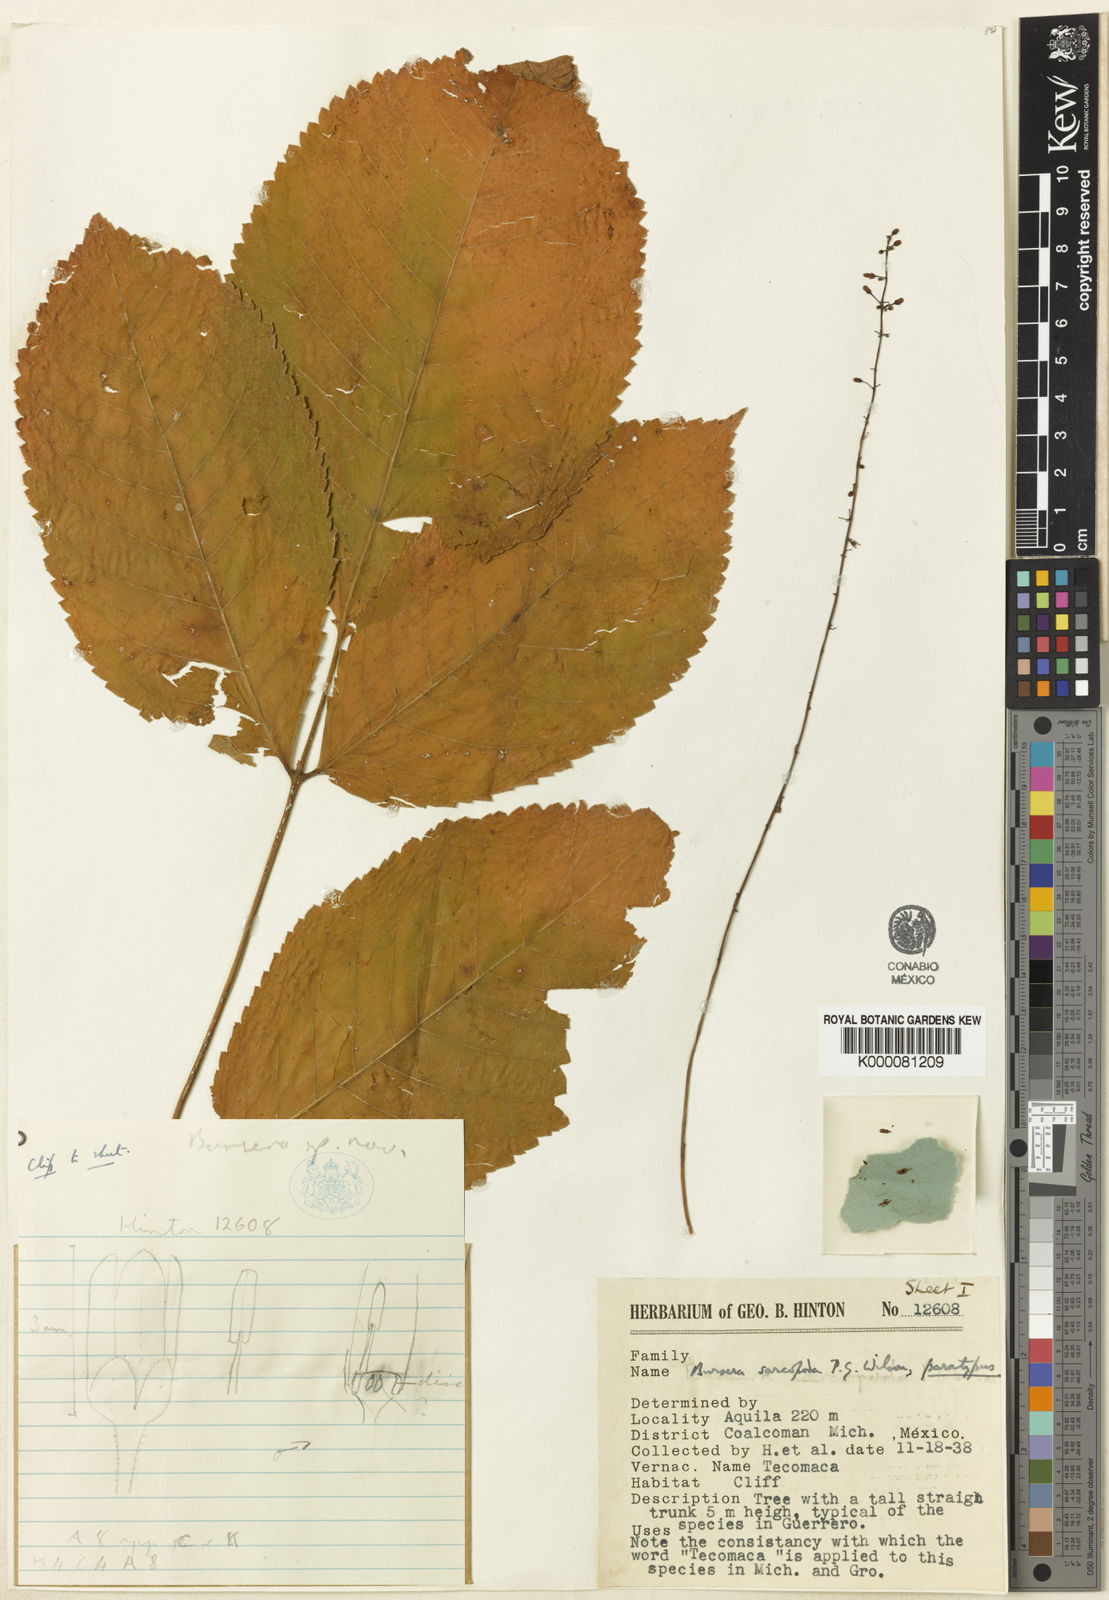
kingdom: Plantae
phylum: Tracheophyta
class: Magnoliopsida
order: Sapindales
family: Burseraceae
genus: Bursera
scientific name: Bursera sarcopoda
